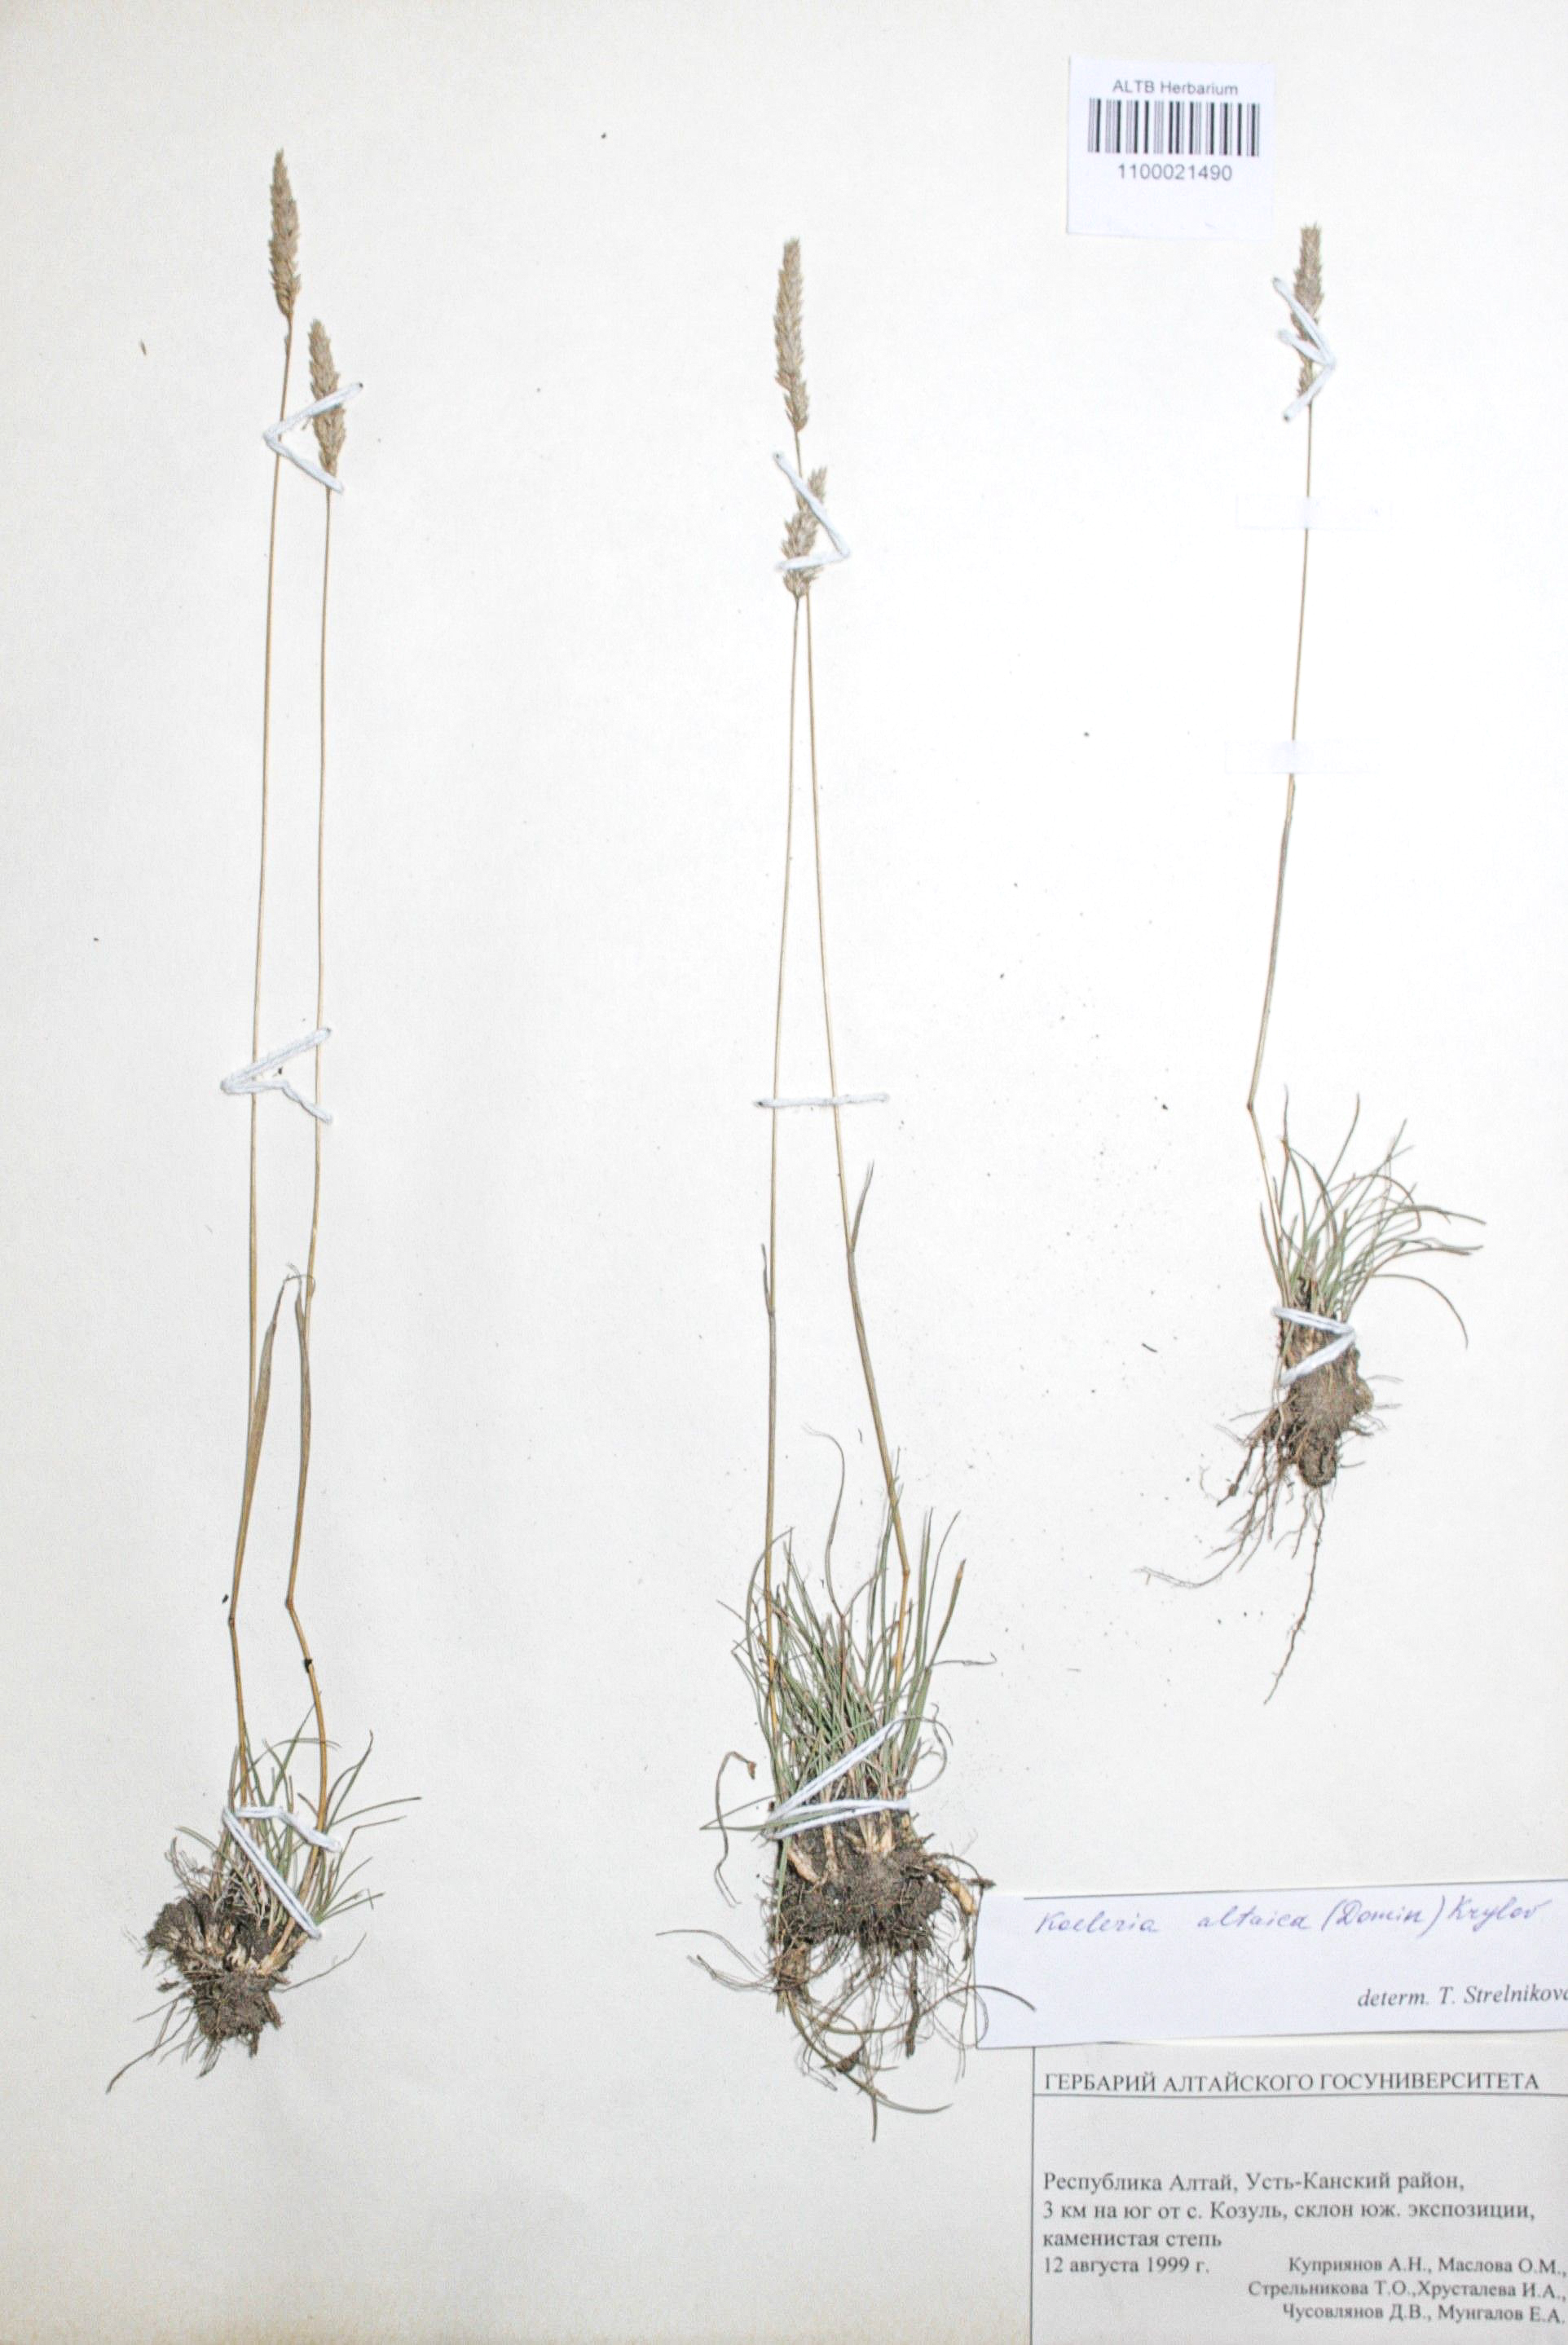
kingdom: Plantae
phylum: Tracheophyta
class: Liliopsida
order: Poales
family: Poaceae
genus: Koeleria
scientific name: Koeleria altaica
